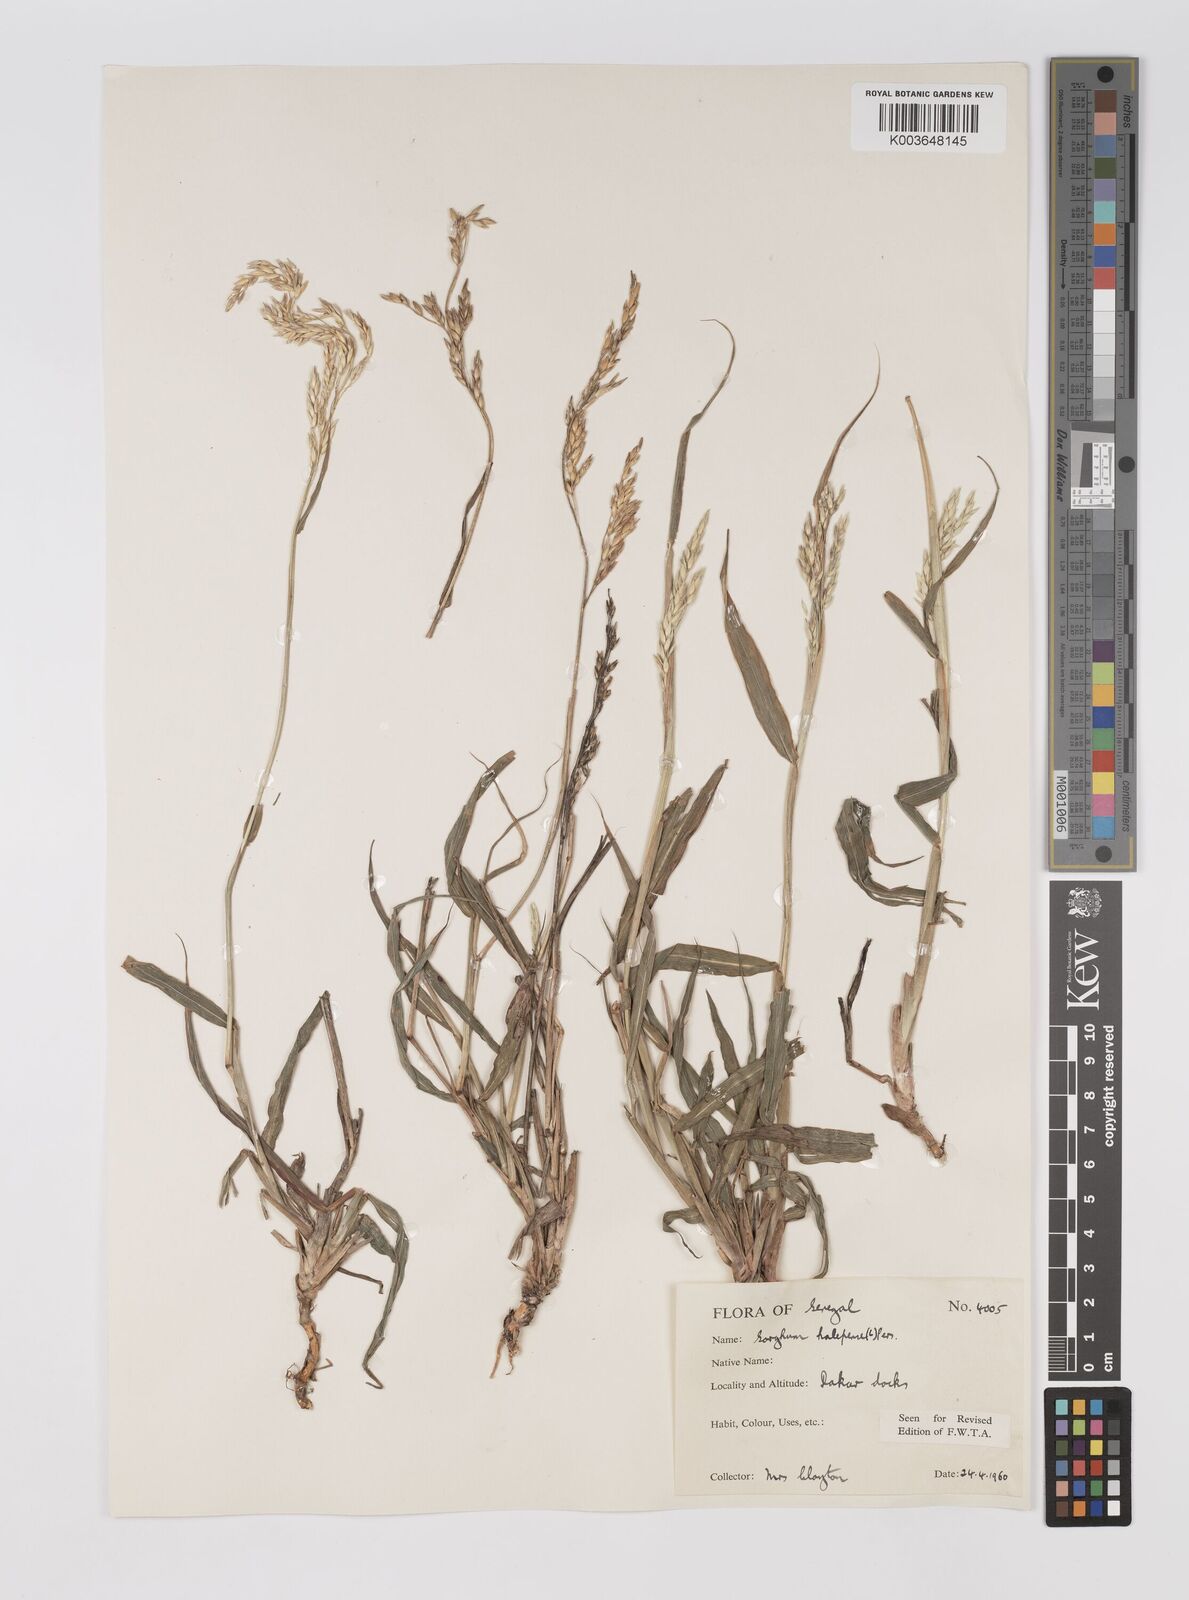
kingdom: Plantae
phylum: Tracheophyta
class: Liliopsida
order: Poales
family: Poaceae
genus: Sorghum
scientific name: Sorghum halepense
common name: Johnson-grass
